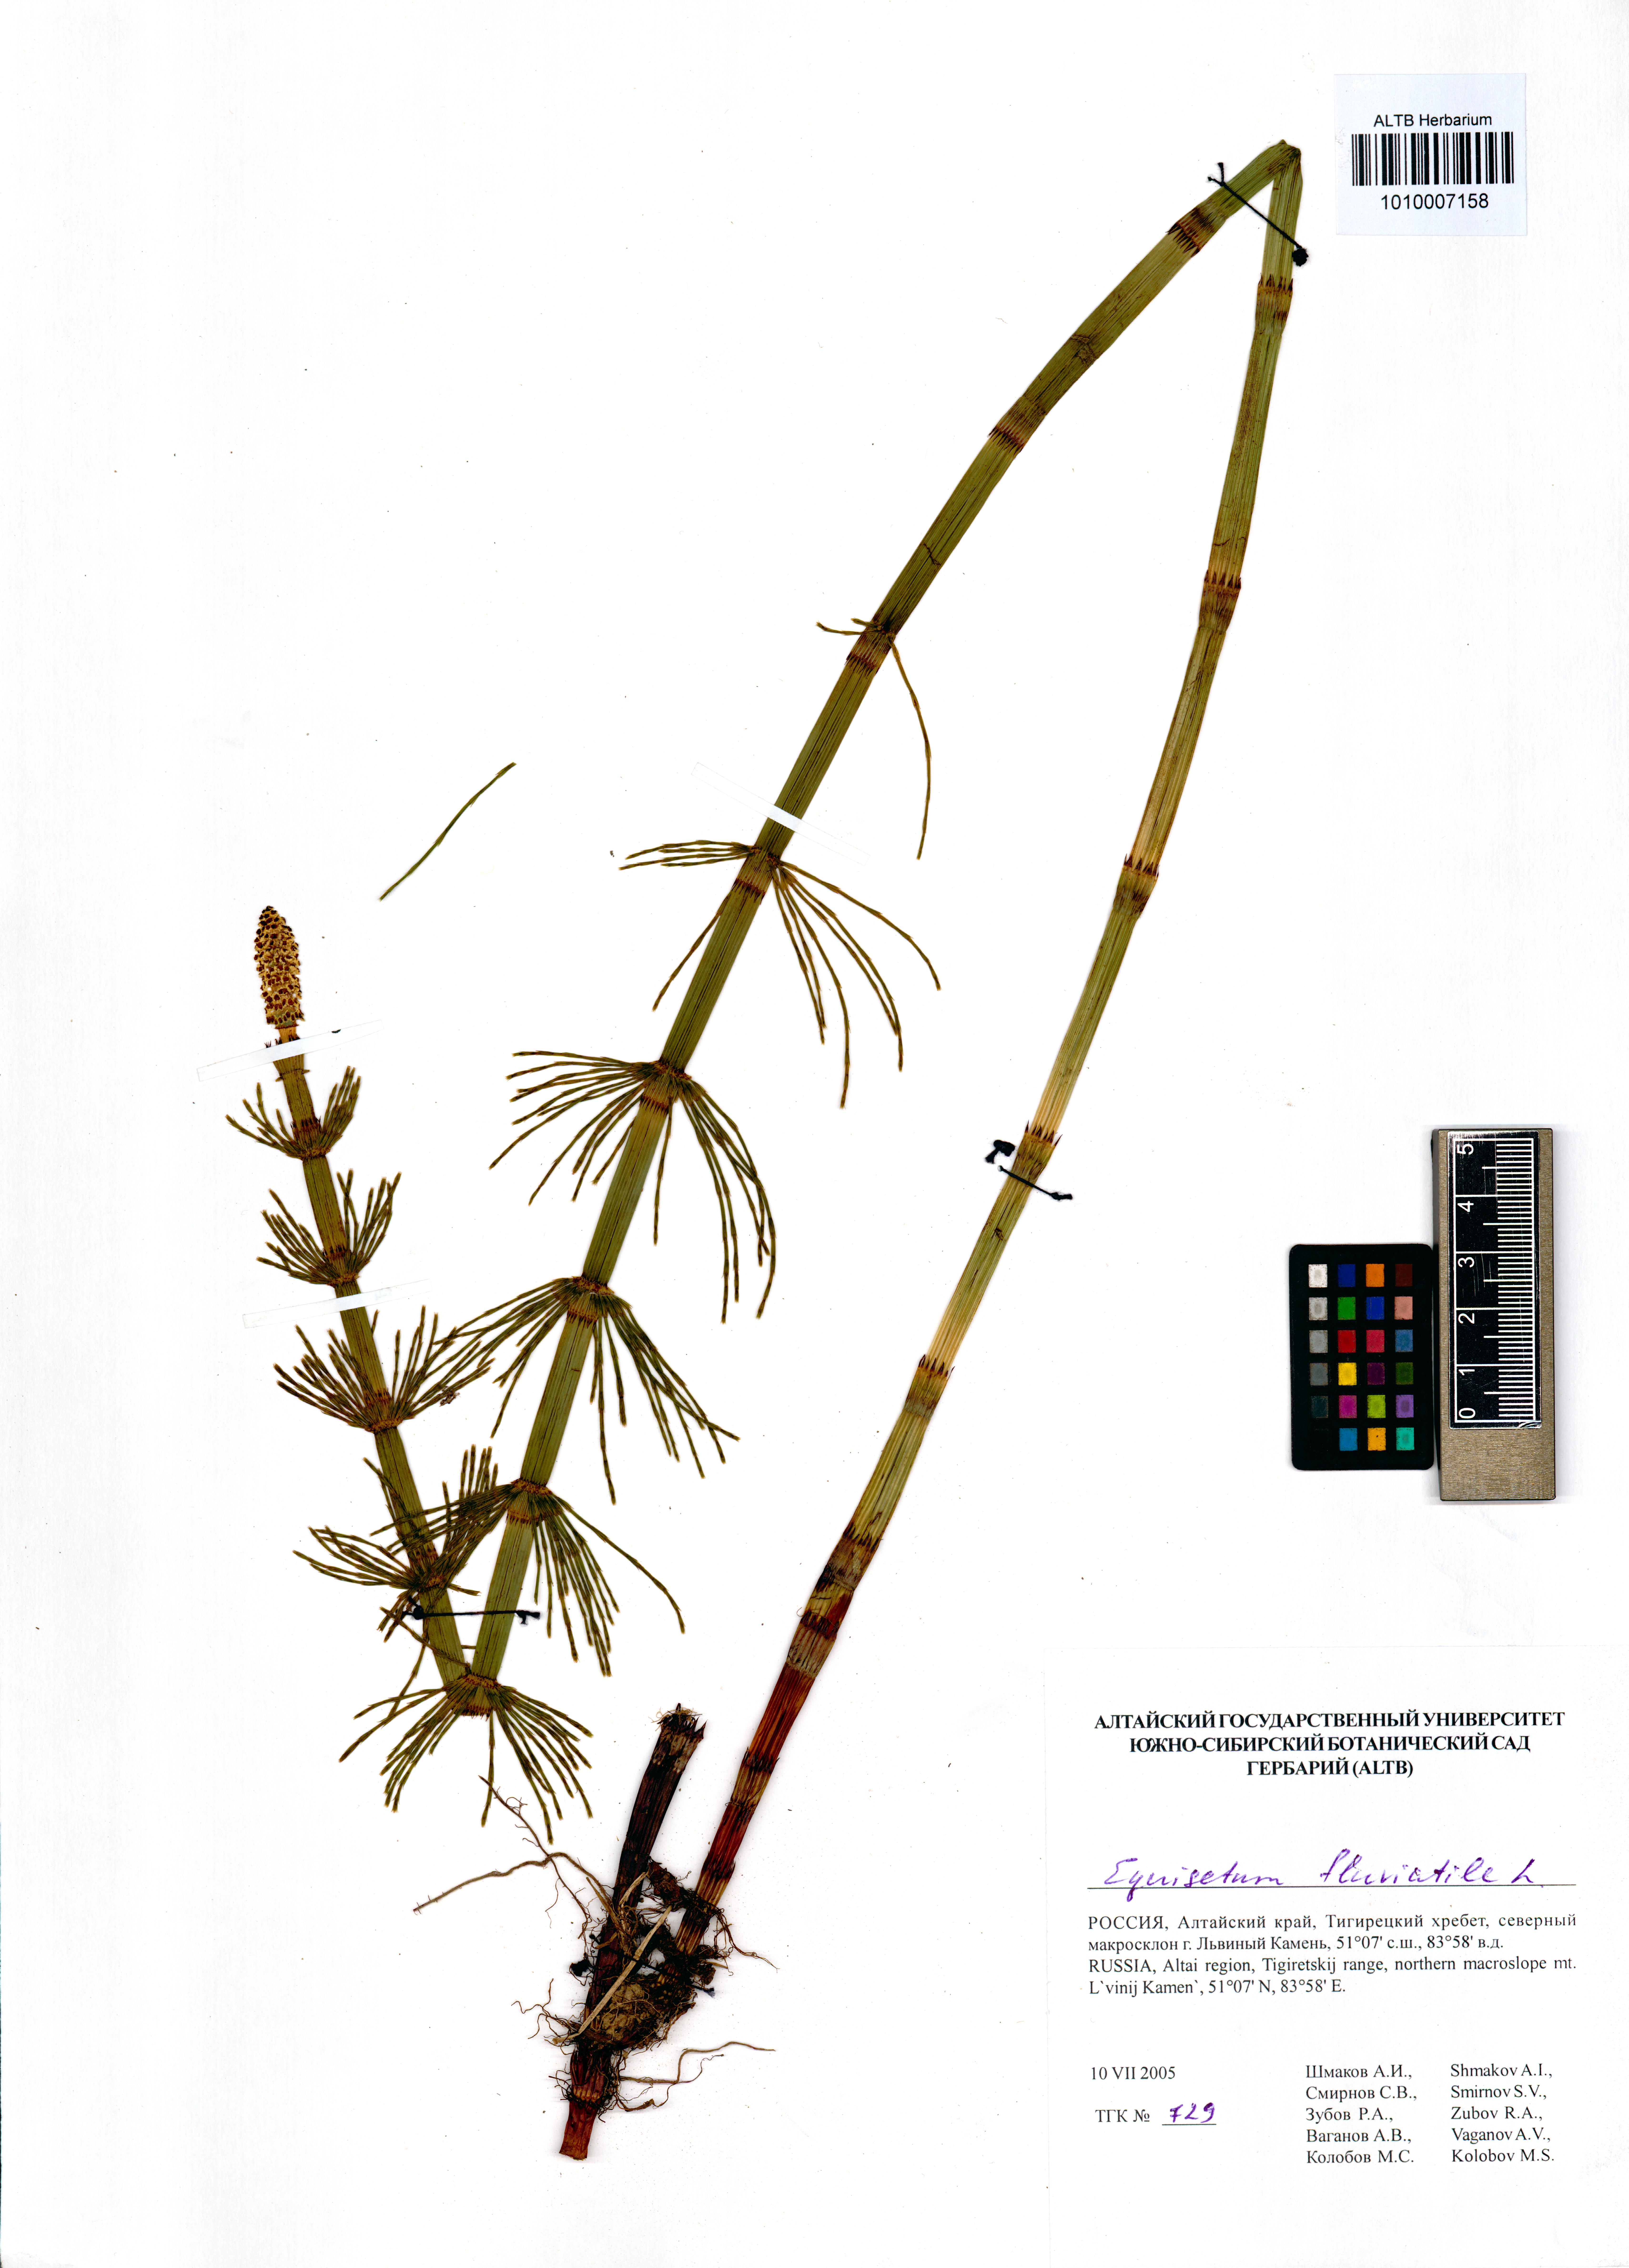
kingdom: Plantae
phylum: Tracheophyta
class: Polypodiopsida
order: Equisetales
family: Equisetaceae
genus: Equisetum
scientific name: Equisetum fluviatile
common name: Water horsetail
